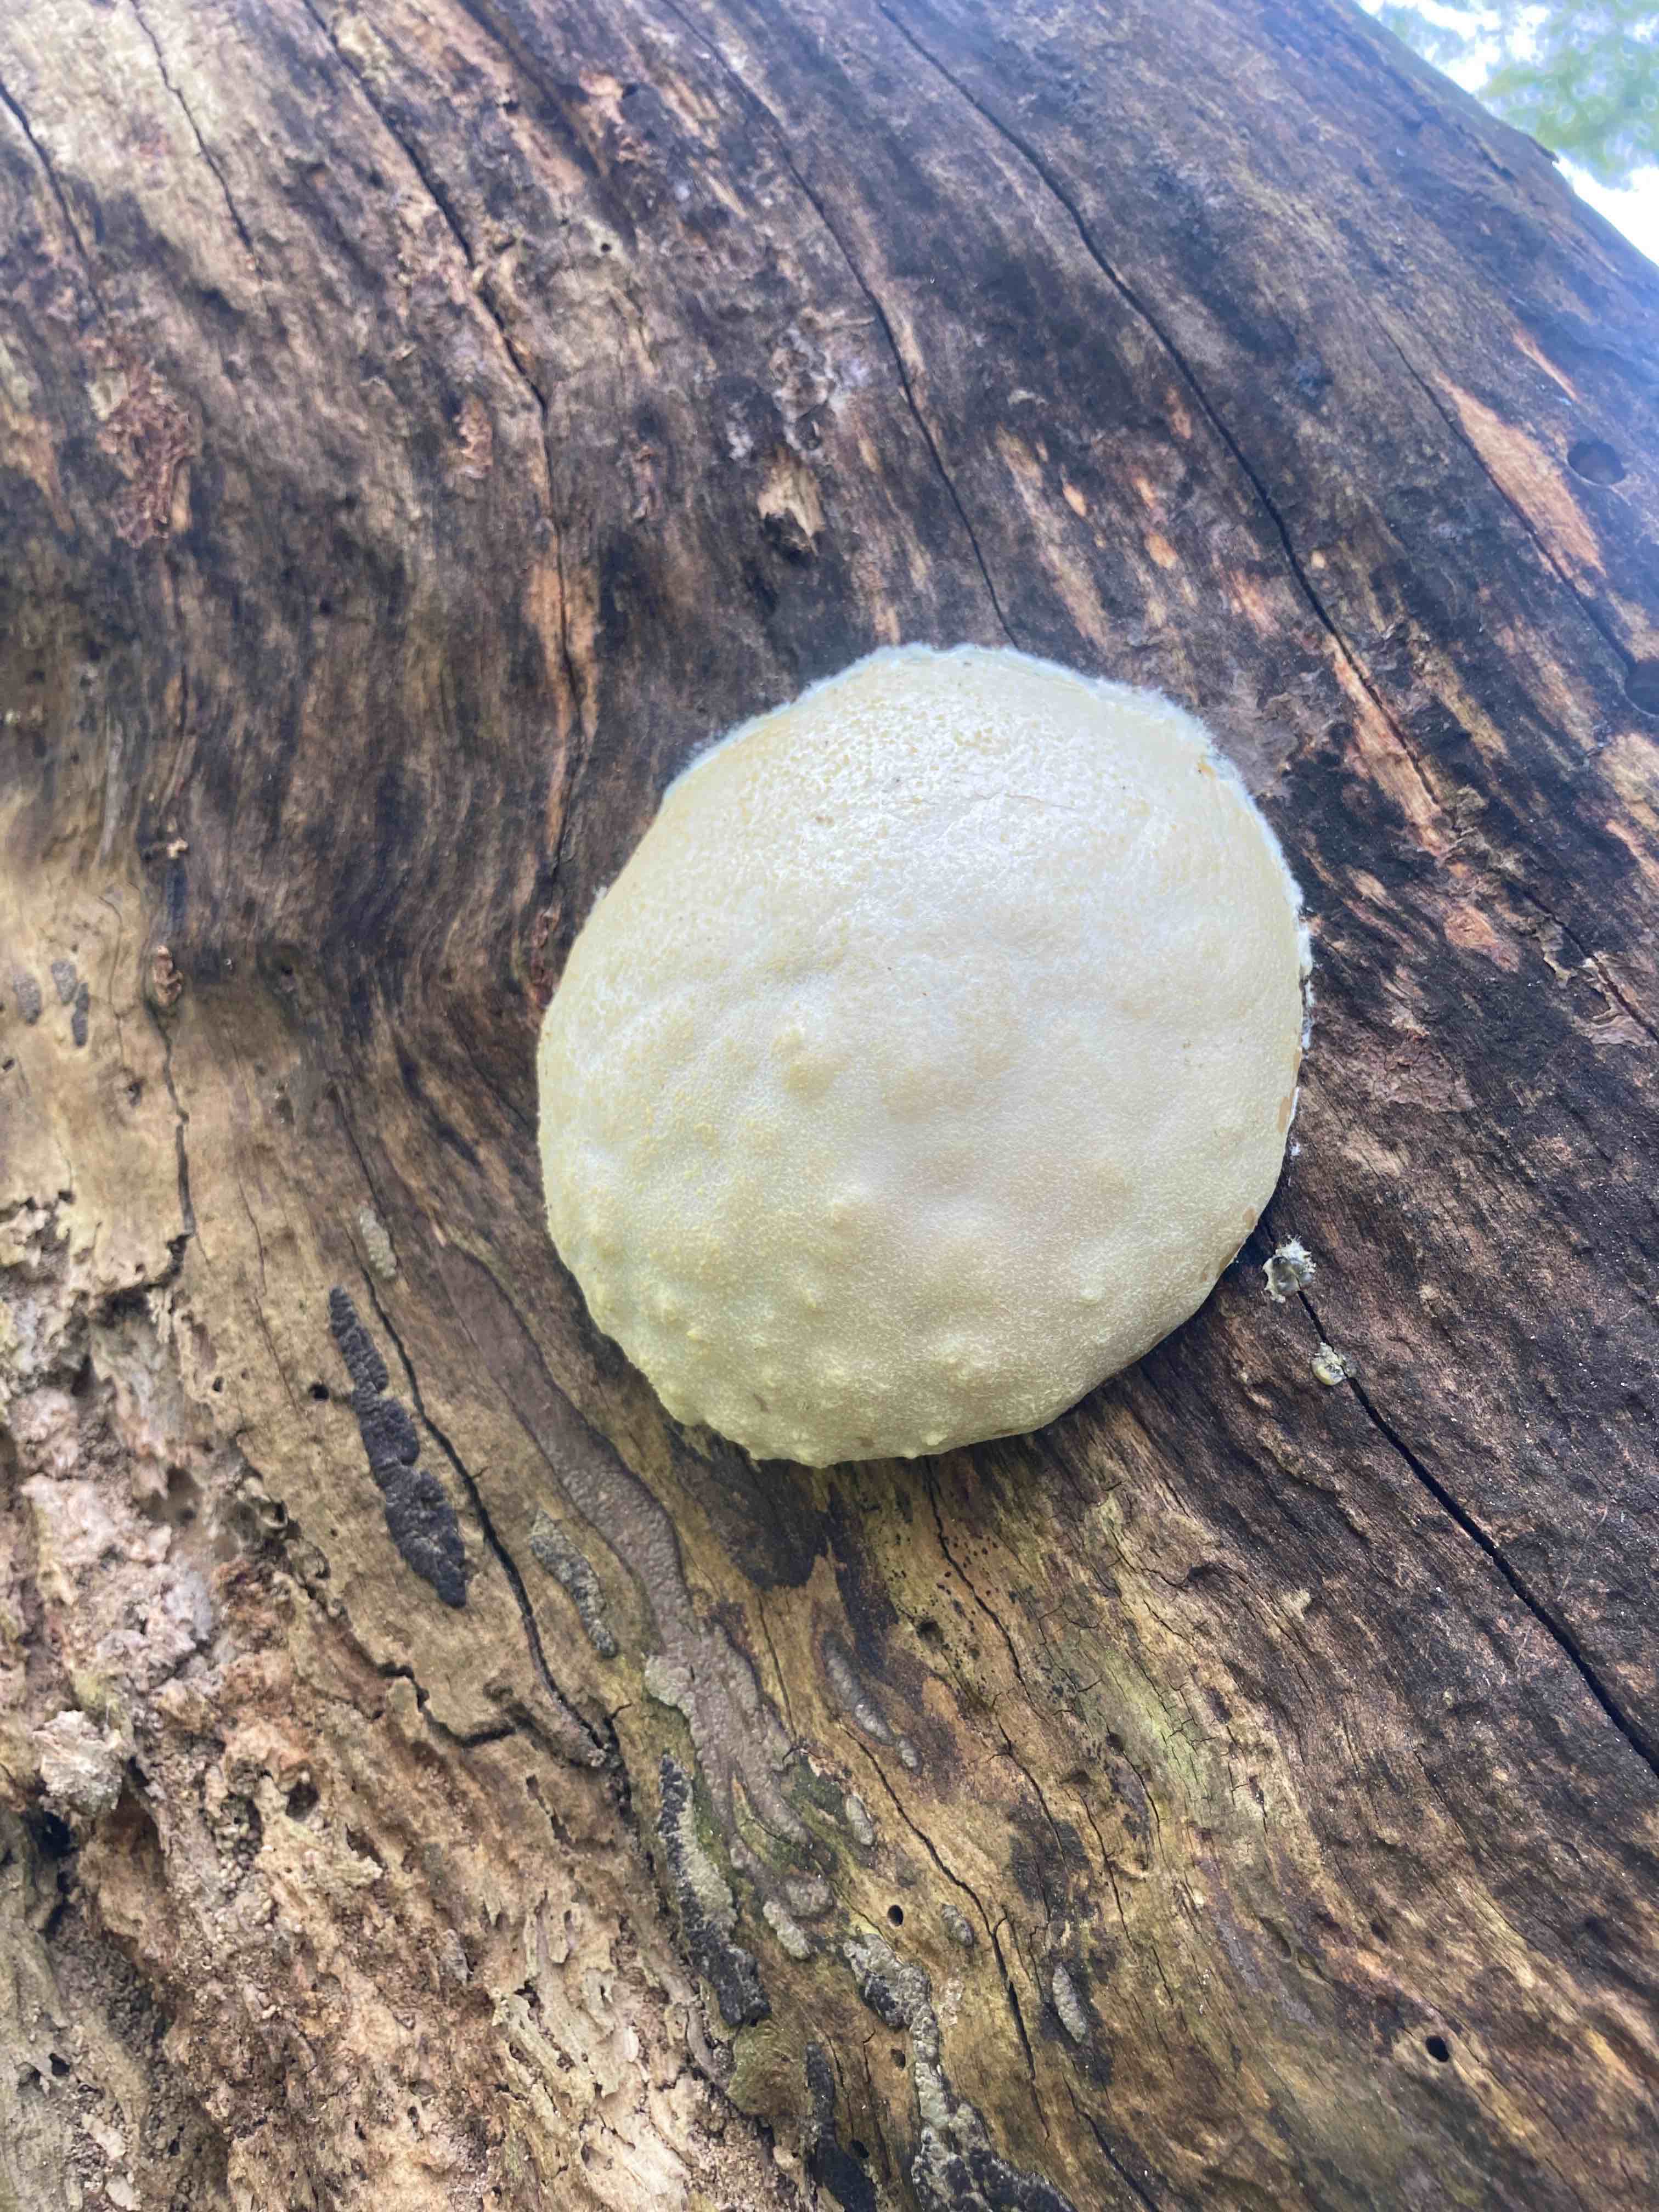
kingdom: Protozoa
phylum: Mycetozoa
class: Myxomycetes
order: Cribrariales
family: Tubiferaceae
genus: Reticularia
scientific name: Reticularia lycoperdon
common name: skinnende støvpude
